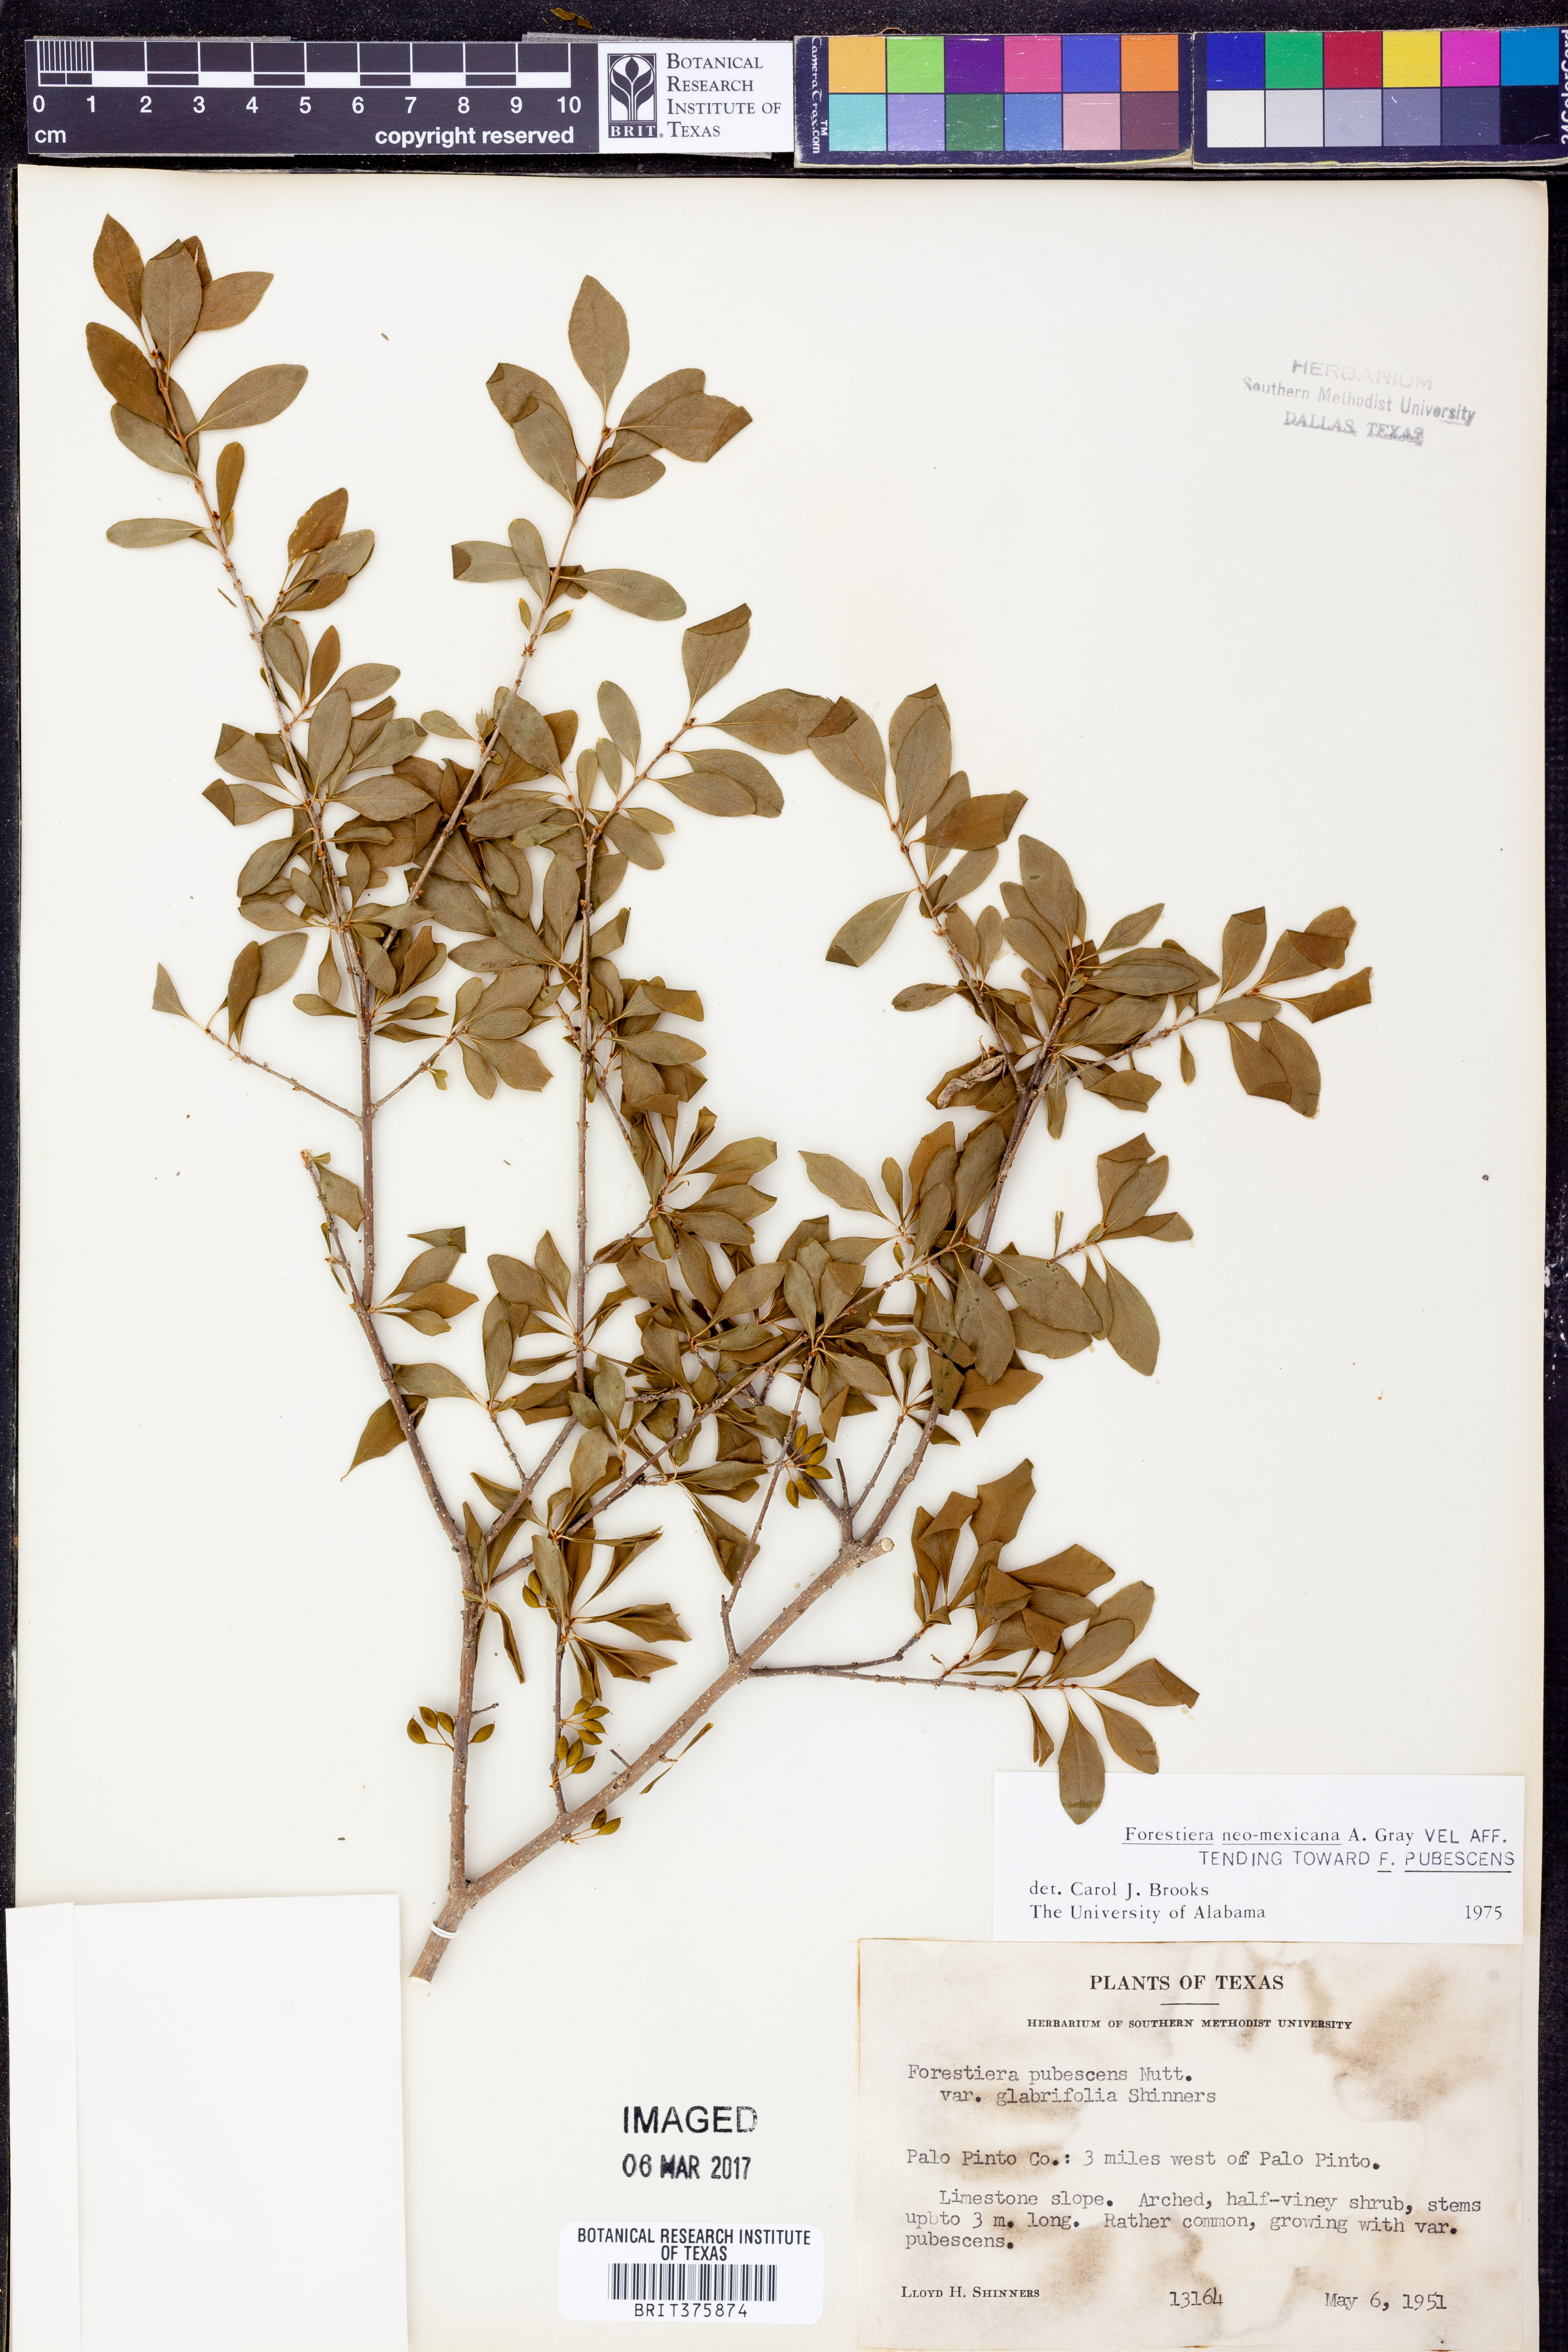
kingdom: Plantae
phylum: Tracheophyta
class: Magnoliopsida
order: Lamiales
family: Oleaceae
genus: Forestiera
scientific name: Forestiera pubescens
